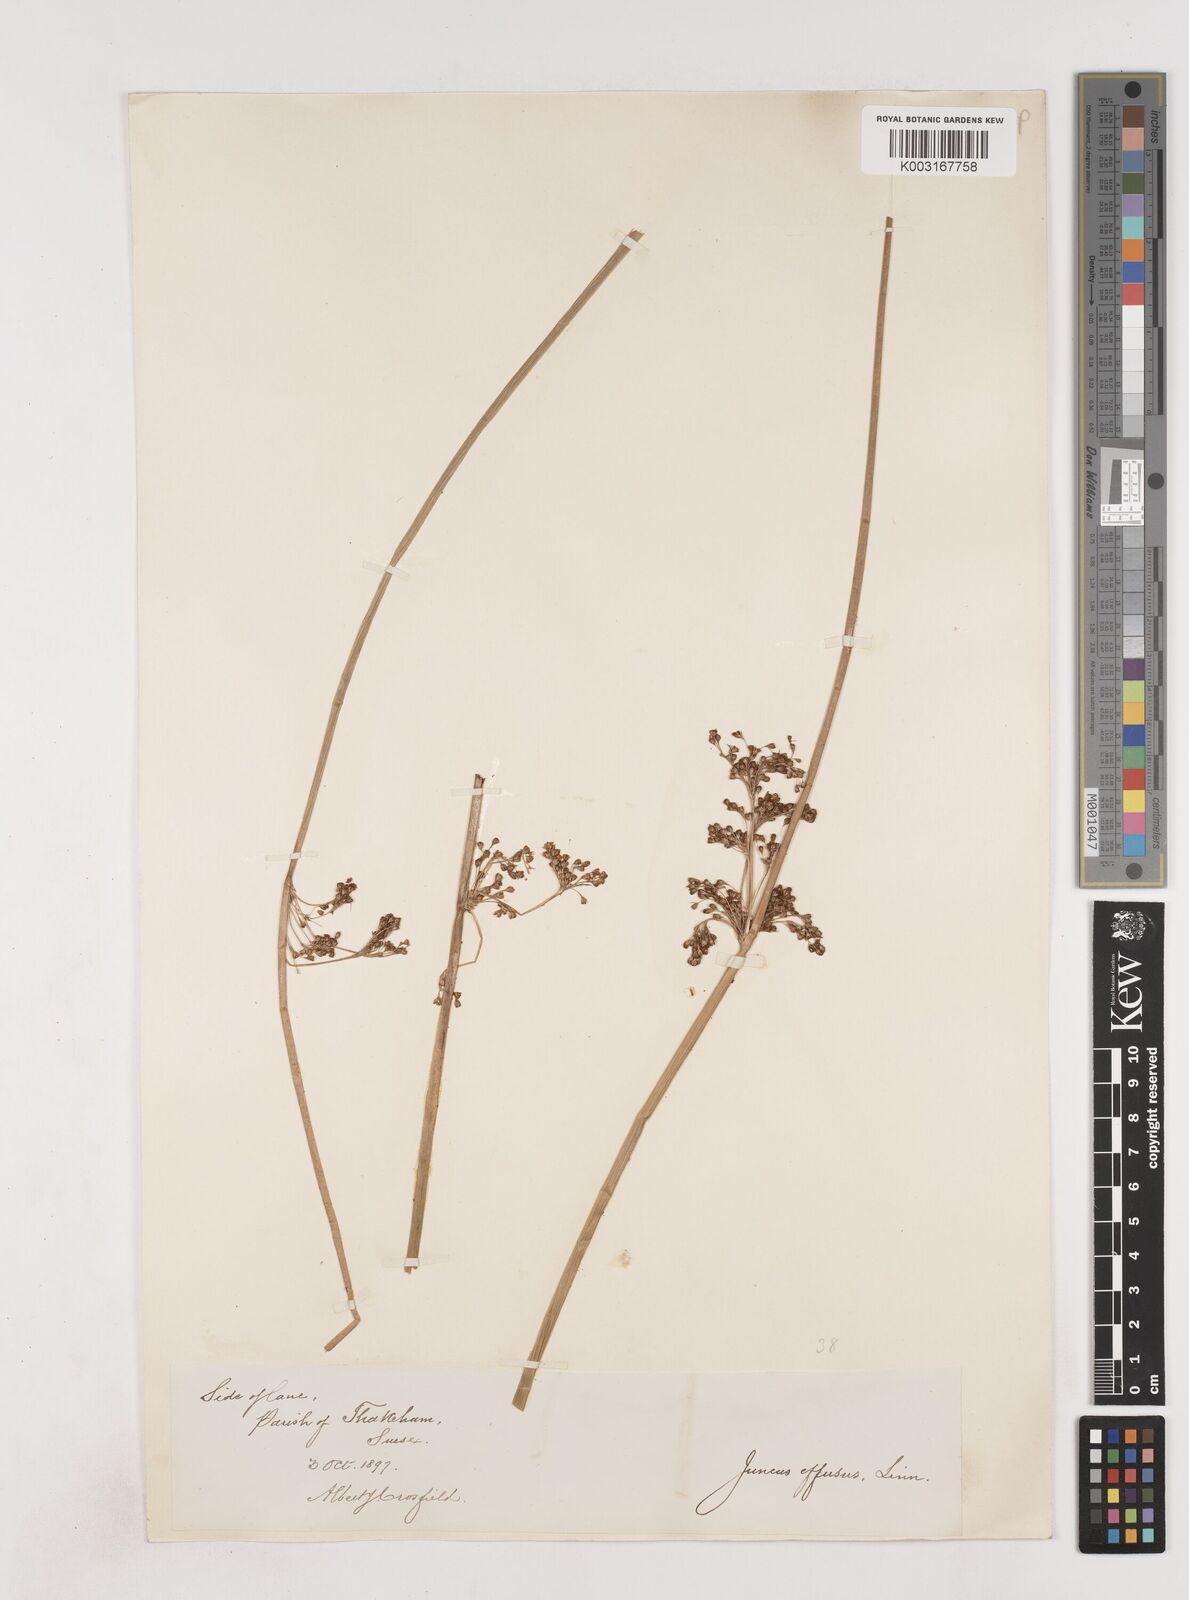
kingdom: Plantae
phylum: Tracheophyta
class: Liliopsida
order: Poales
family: Juncaceae
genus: Juncus
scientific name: Juncus effusus
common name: Soft rush
